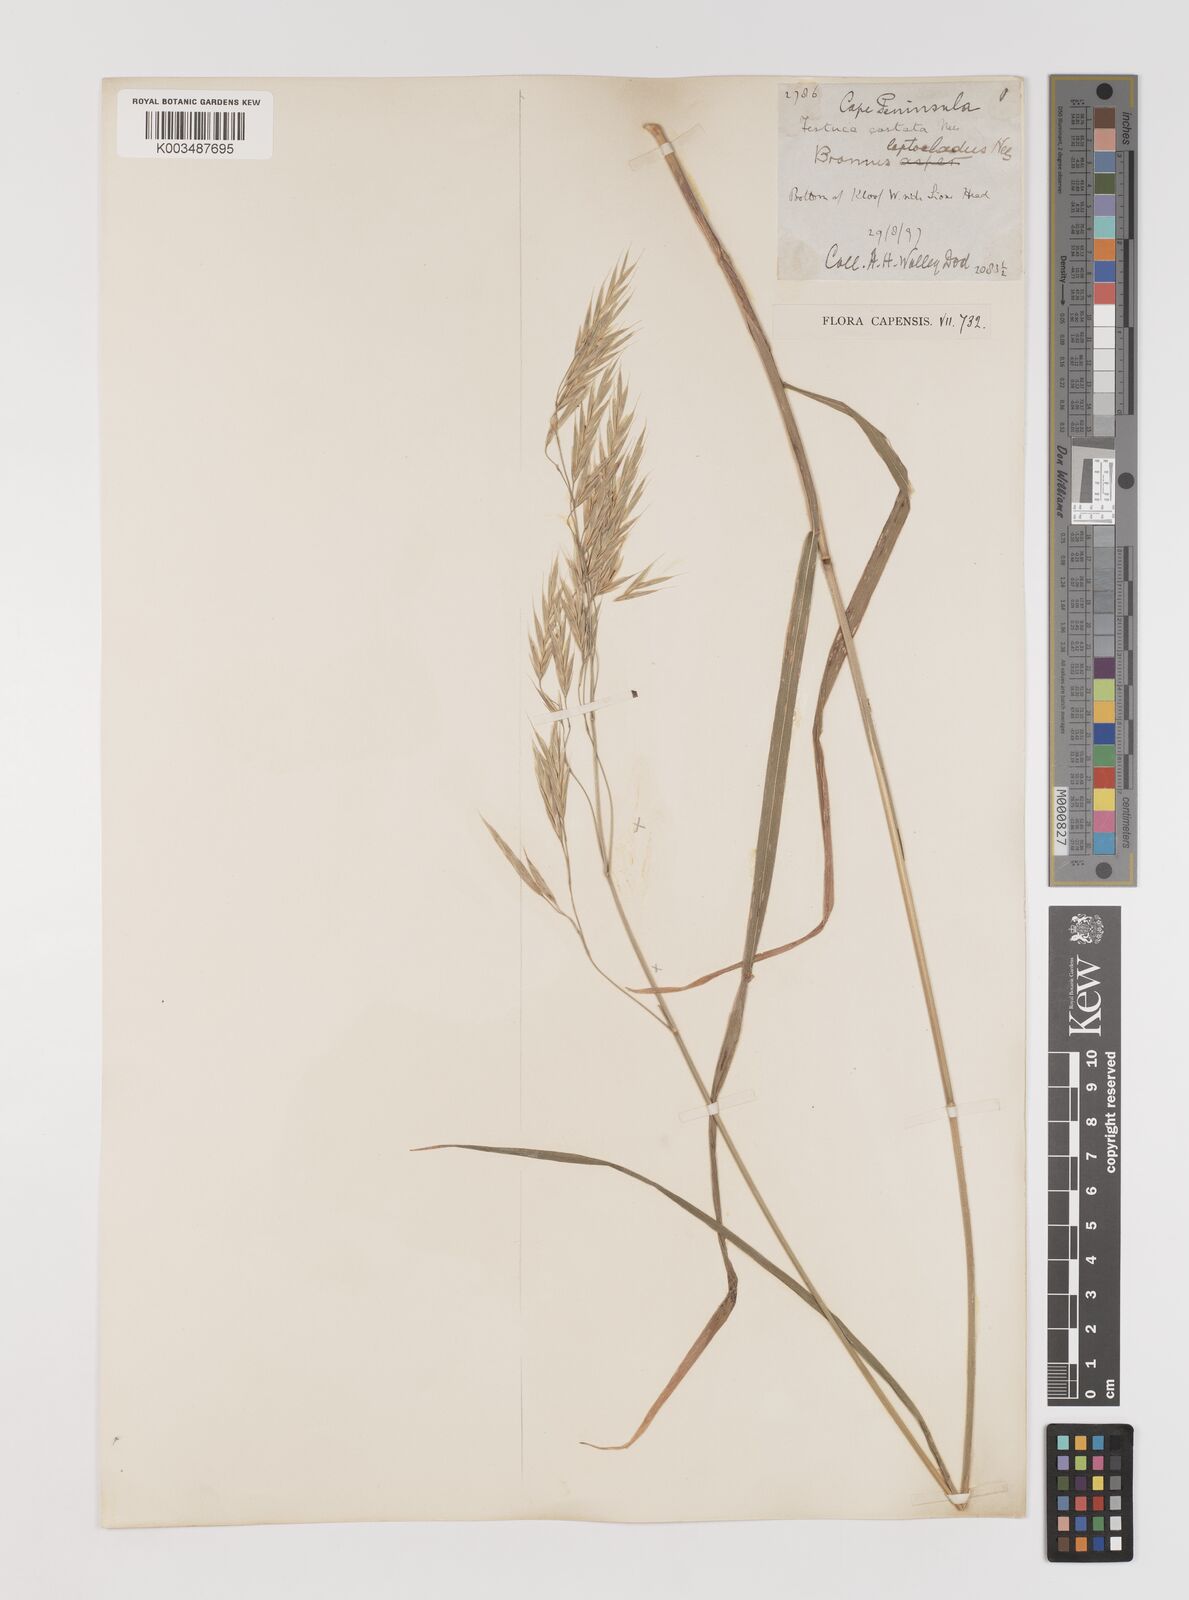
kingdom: Plantae
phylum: Tracheophyta
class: Liliopsida
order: Poales
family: Poaceae
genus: Bromus
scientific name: Bromus leptoclados
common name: Mountain bromegrass
